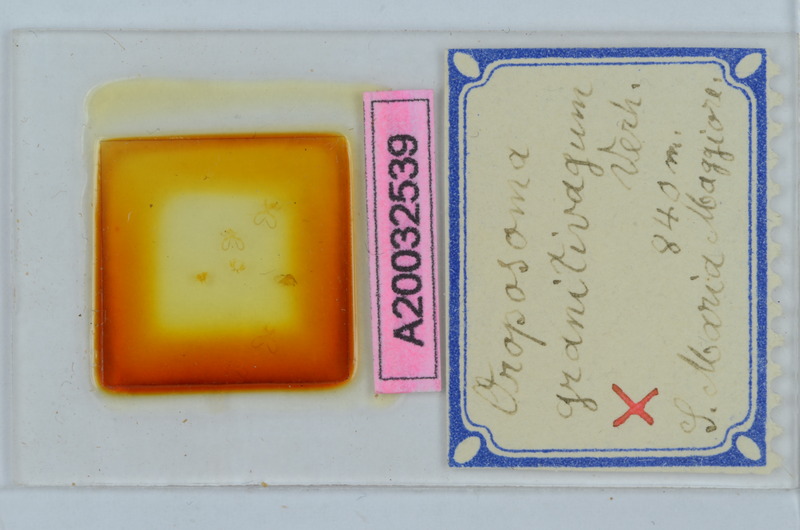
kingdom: Animalia
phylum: Arthropoda
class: Diplopoda
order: Chordeumatida
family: Craspedosomatidae
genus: Oroposoma
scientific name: Oroposoma granitivagum
